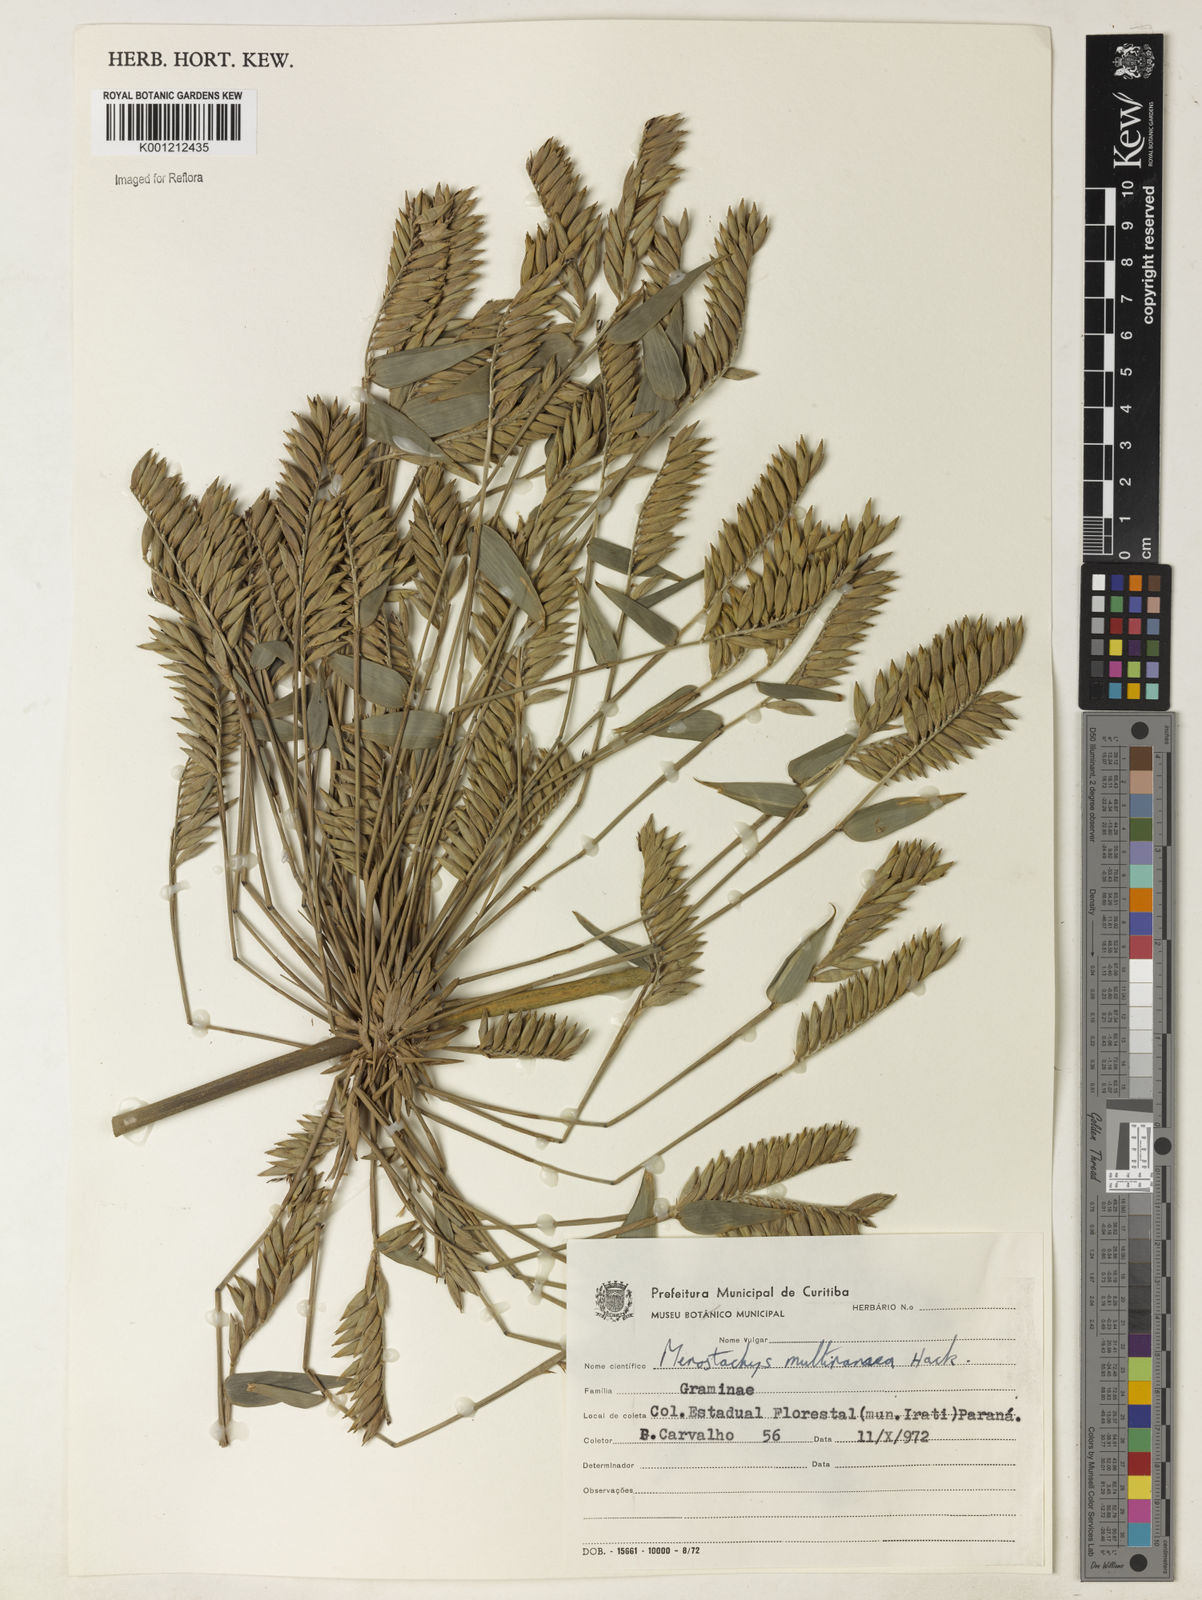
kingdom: Plantae
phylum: Tracheophyta
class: Liliopsida
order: Poales
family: Poaceae
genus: Merostachys
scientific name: Merostachys multiramea
